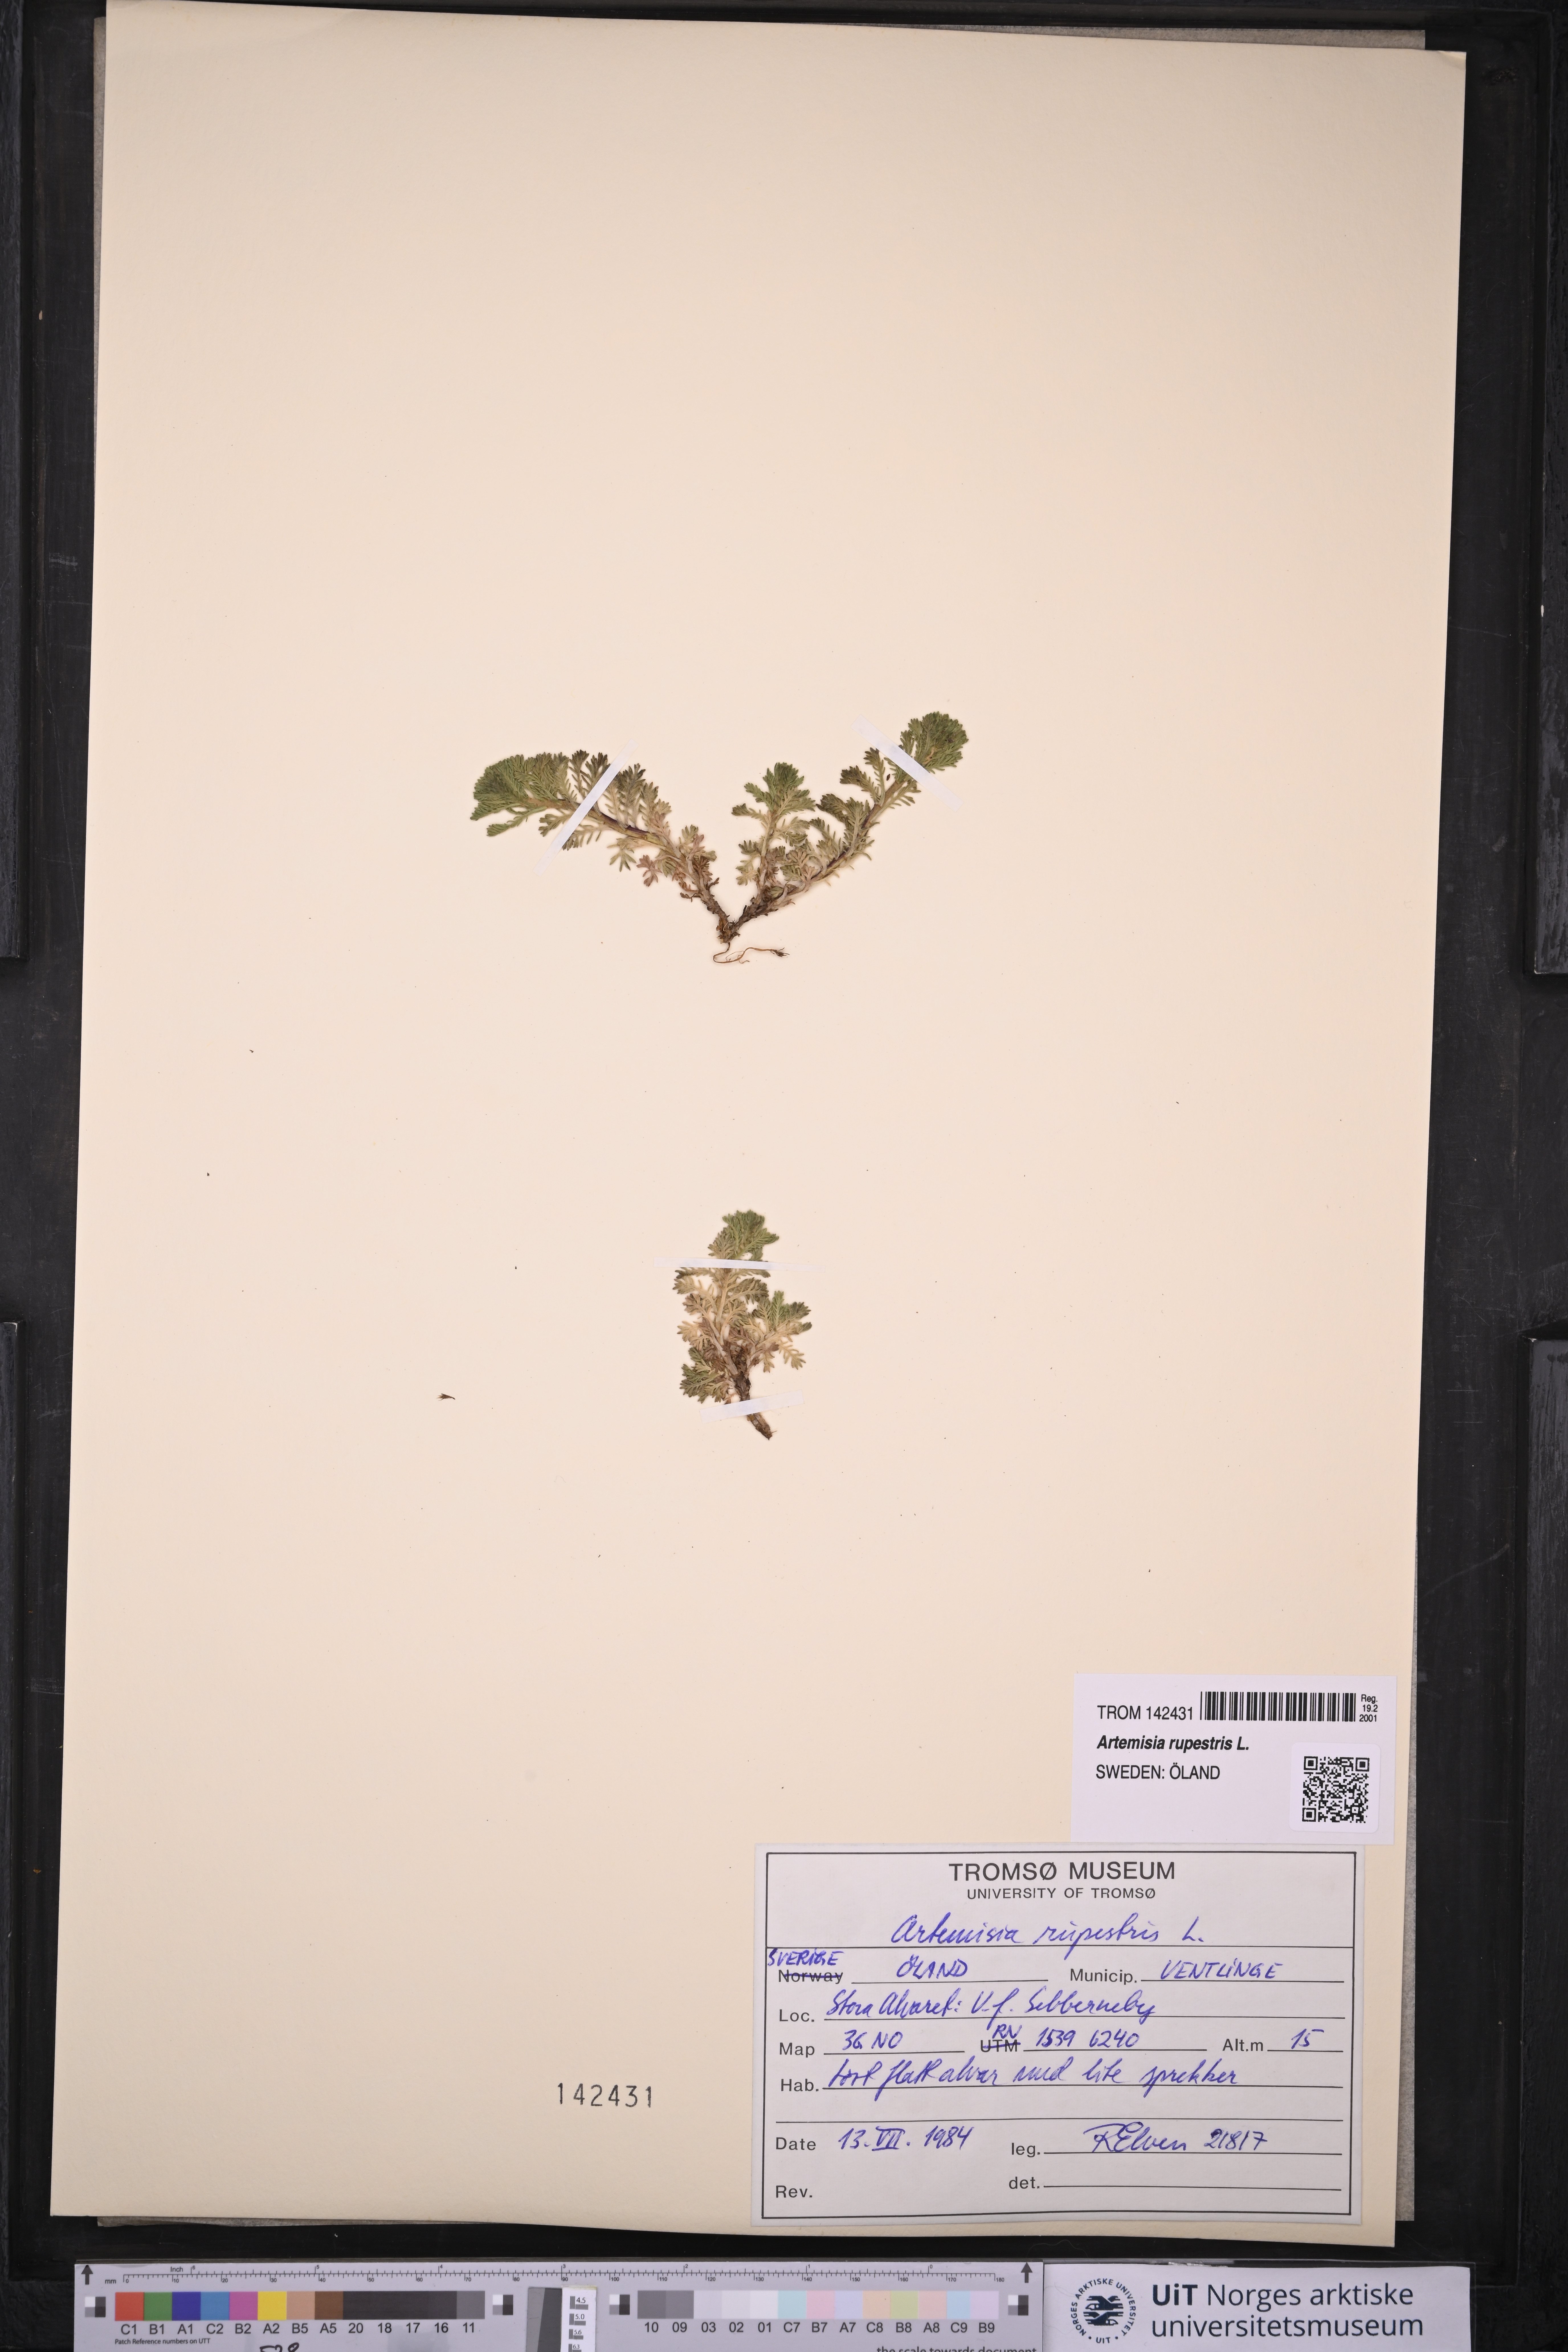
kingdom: Plantae
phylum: Tracheophyta
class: Magnoliopsida
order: Asterales
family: Asteraceae
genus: Artemisia
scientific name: Artemisia rupestris
